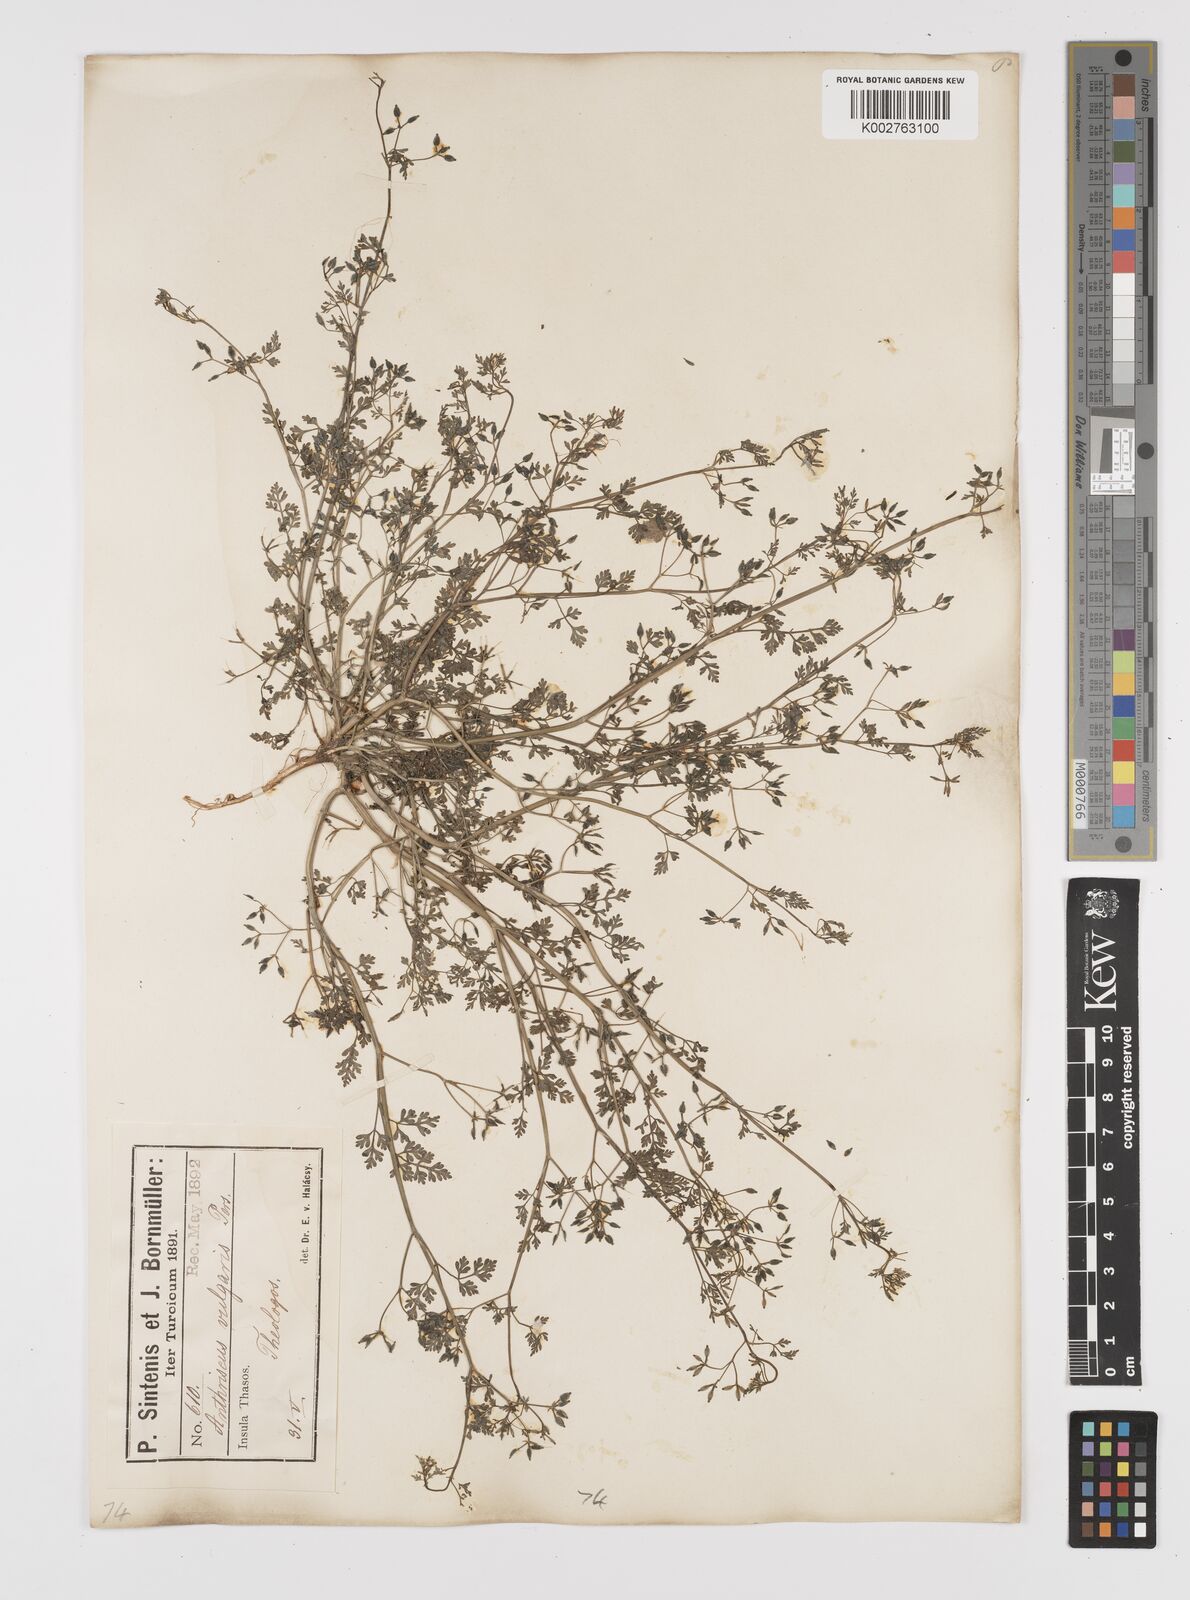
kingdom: Plantae
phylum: Tracheophyta
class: Magnoliopsida
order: Apiales
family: Apiaceae
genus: Anthriscus
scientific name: Anthriscus caucalis
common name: Bur chervil
